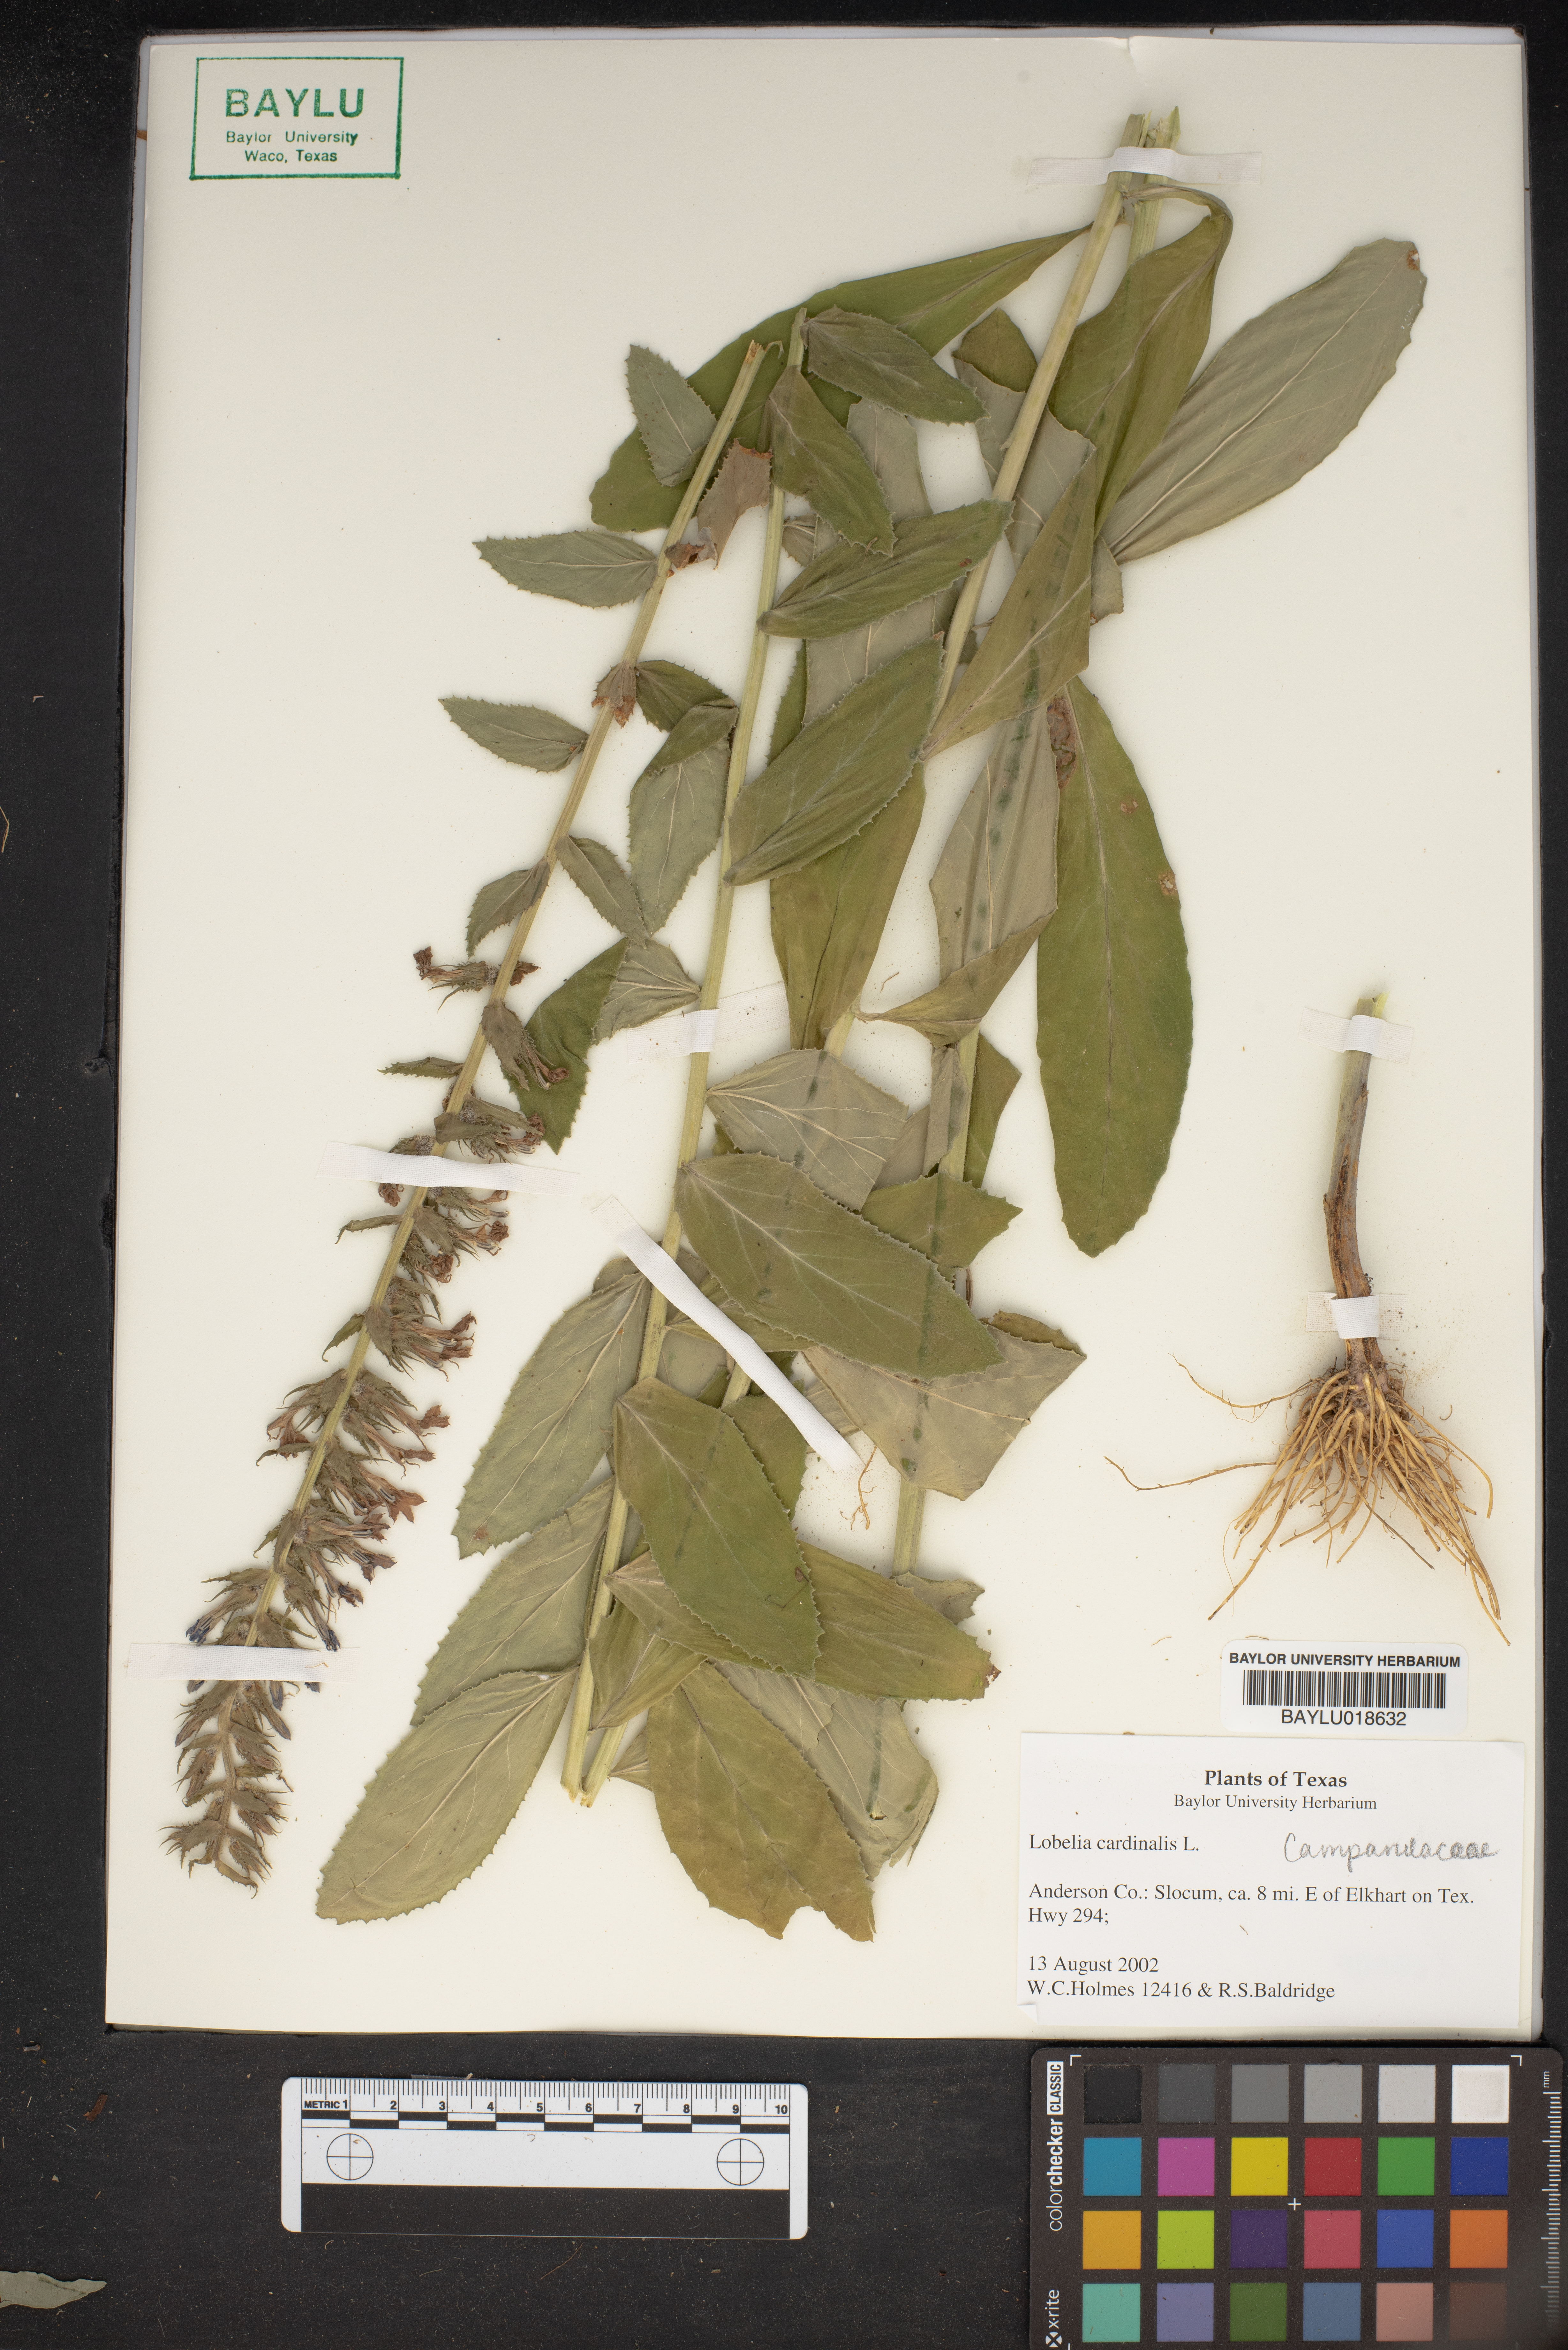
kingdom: Plantae
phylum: Tracheophyta
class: Magnoliopsida
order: Asterales
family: Campanulaceae
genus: Lobelia
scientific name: Lobelia cardinalis
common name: Cardinal flower
